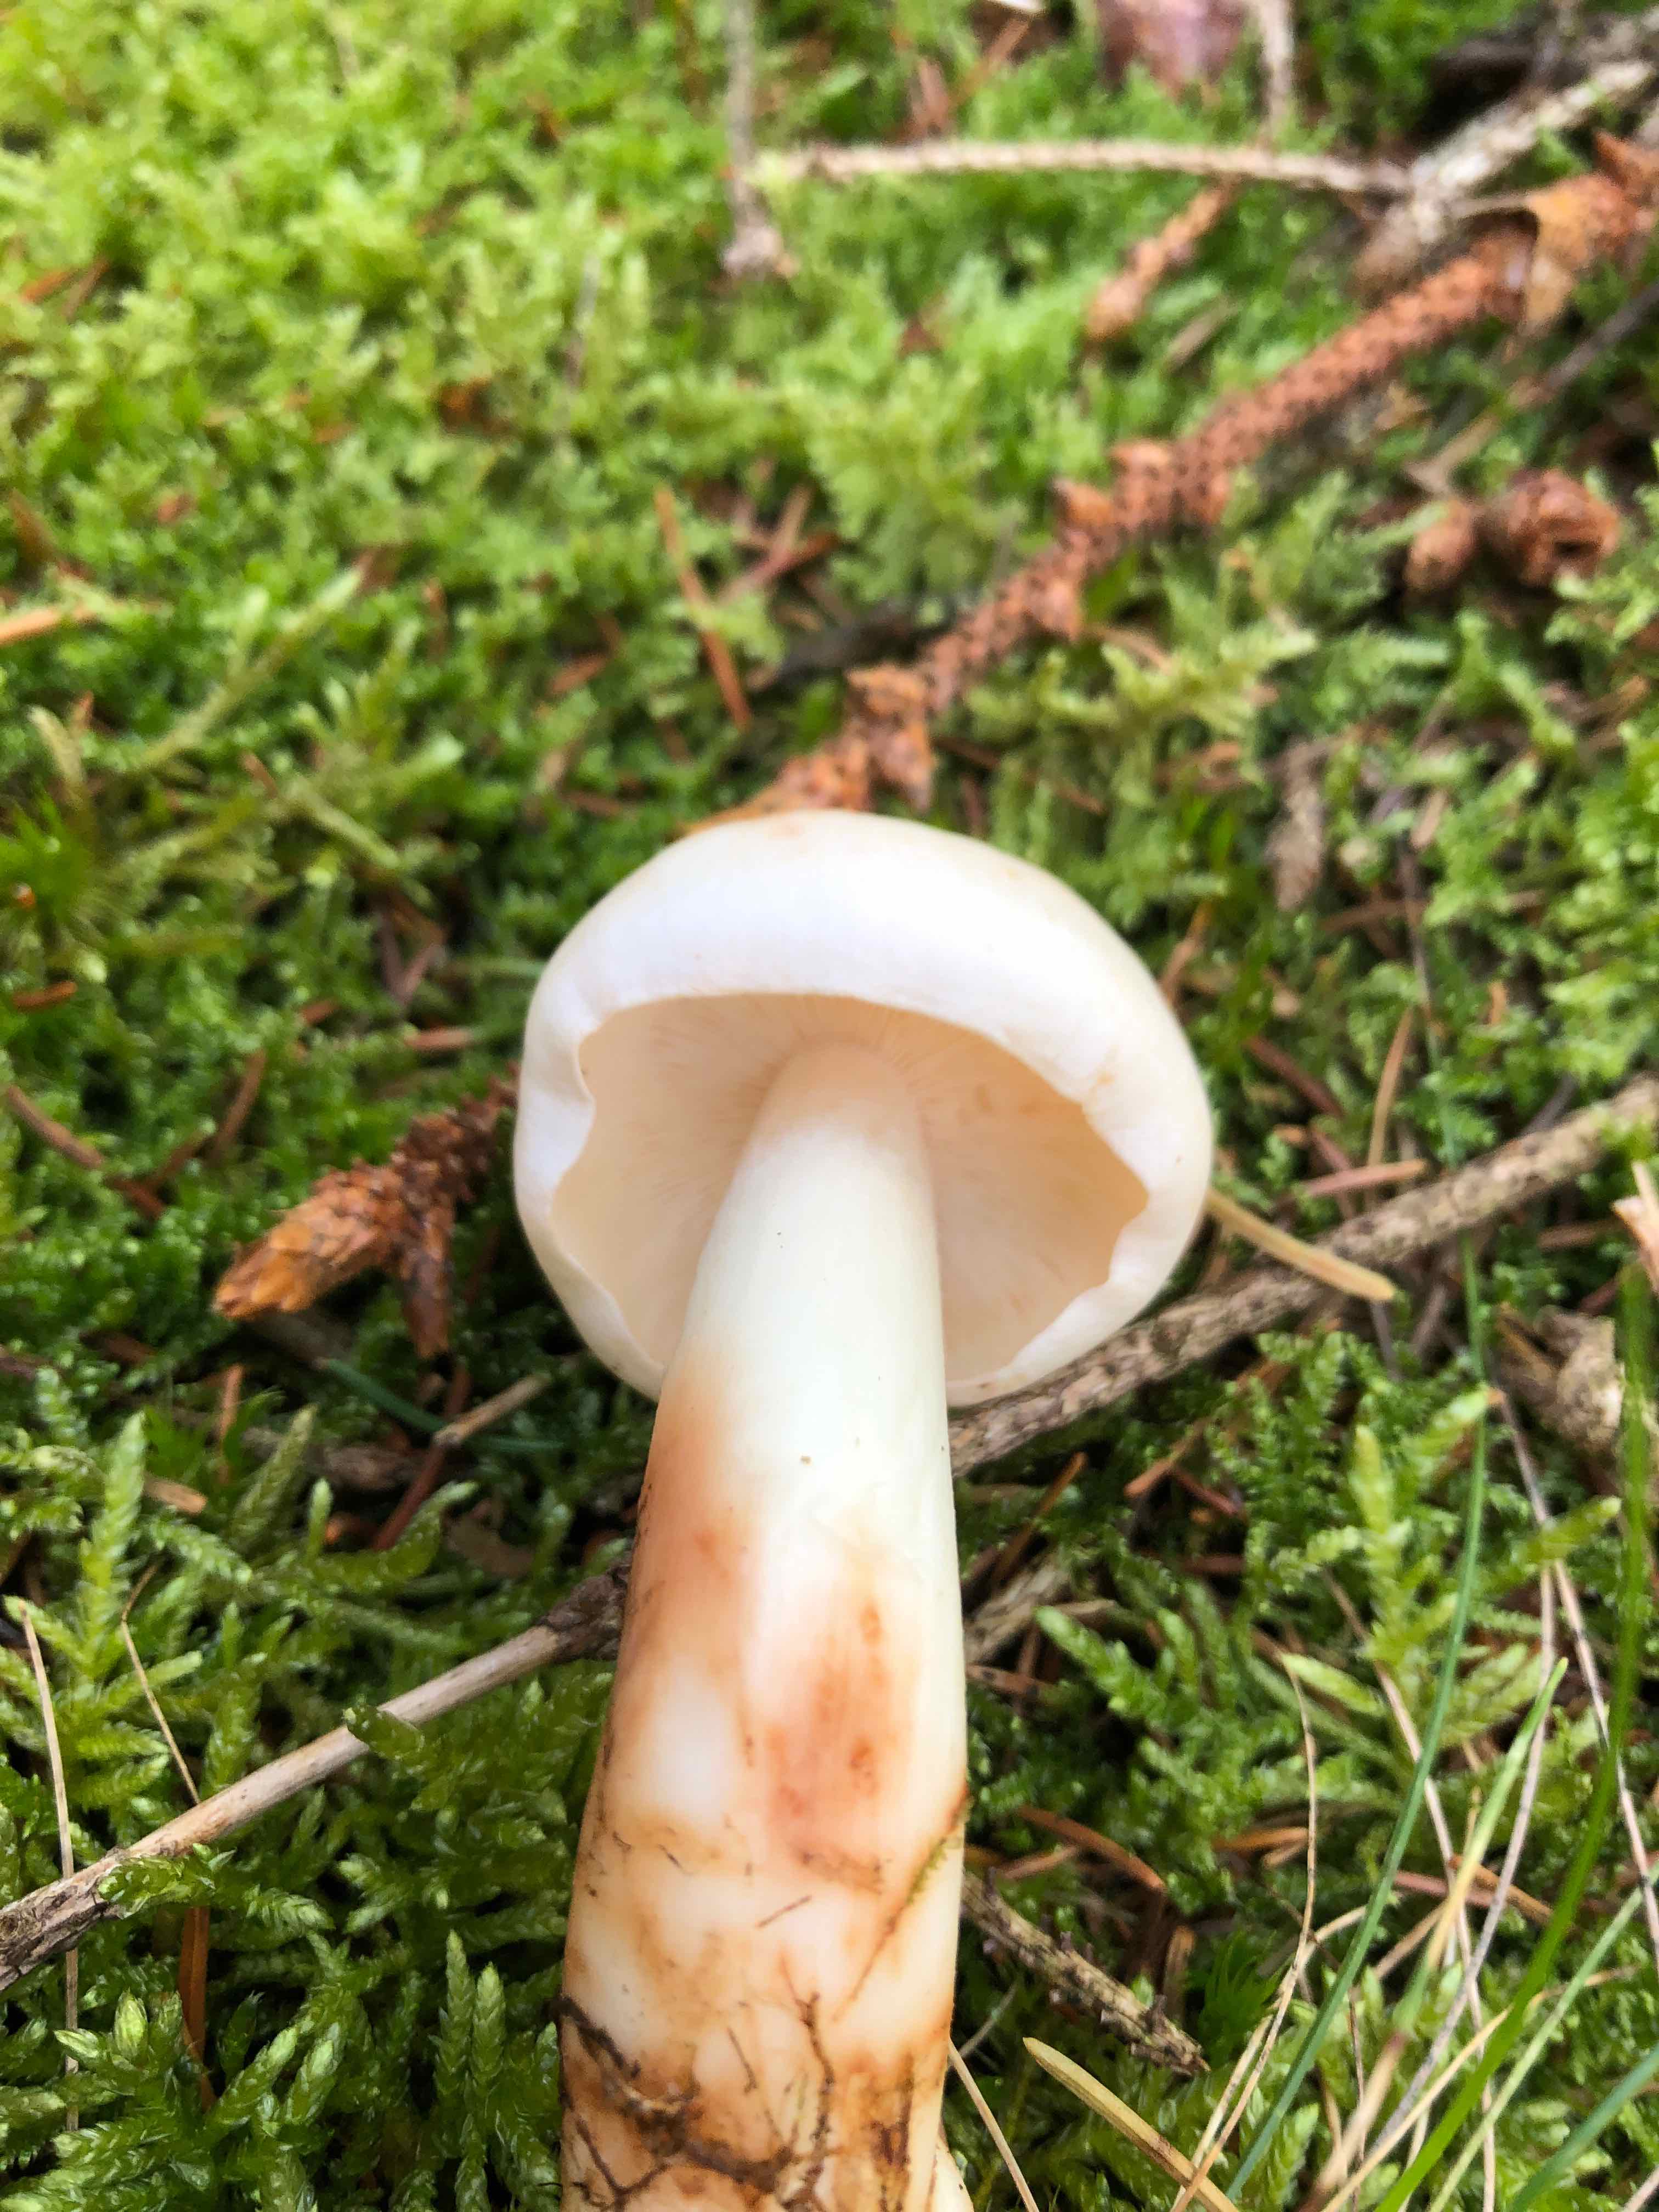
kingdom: Fungi
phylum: Basidiomycota
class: Agaricomycetes
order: Agaricales
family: Omphalotaceae
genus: Rhodocollybia
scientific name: Rhodocollybia maculata
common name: plettet fladhat
